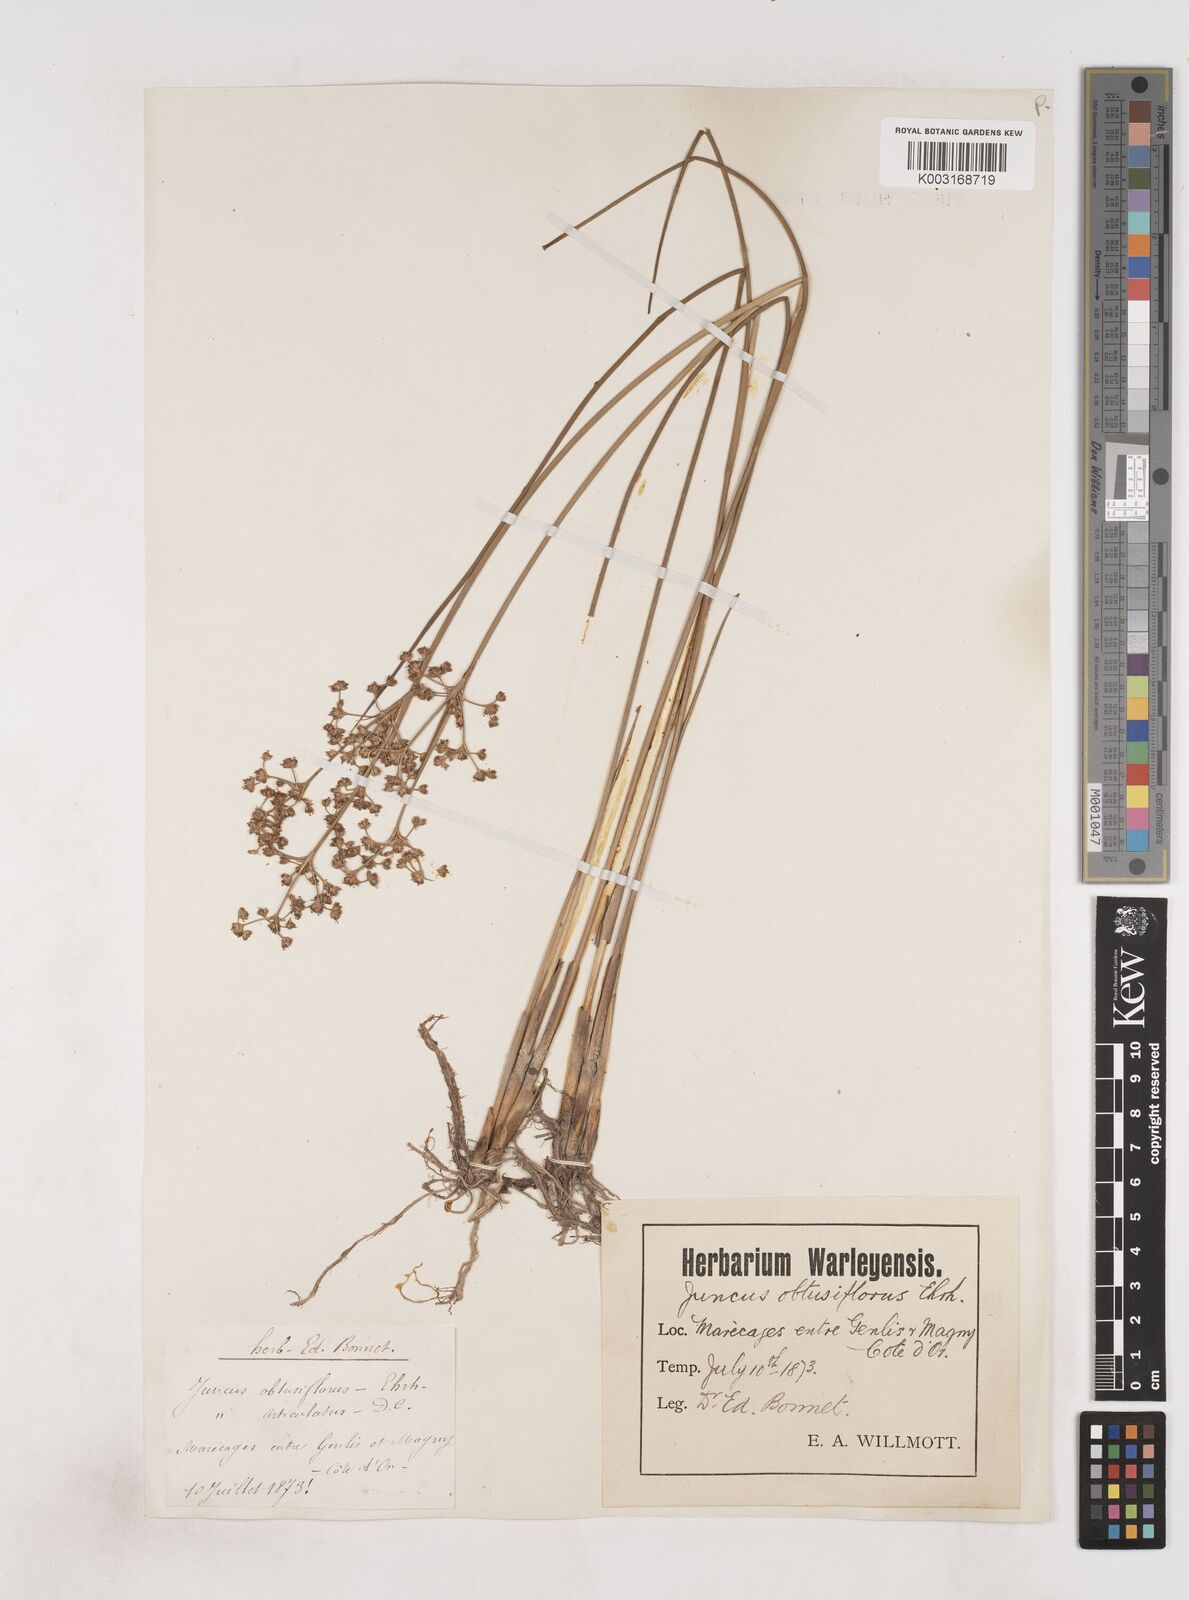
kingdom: Plantae
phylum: Tracheophyta
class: Liliopsida
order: Poales
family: Juncaceae
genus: Juncus
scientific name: Juncus subnodulosus
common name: Blunt-flowered rush
